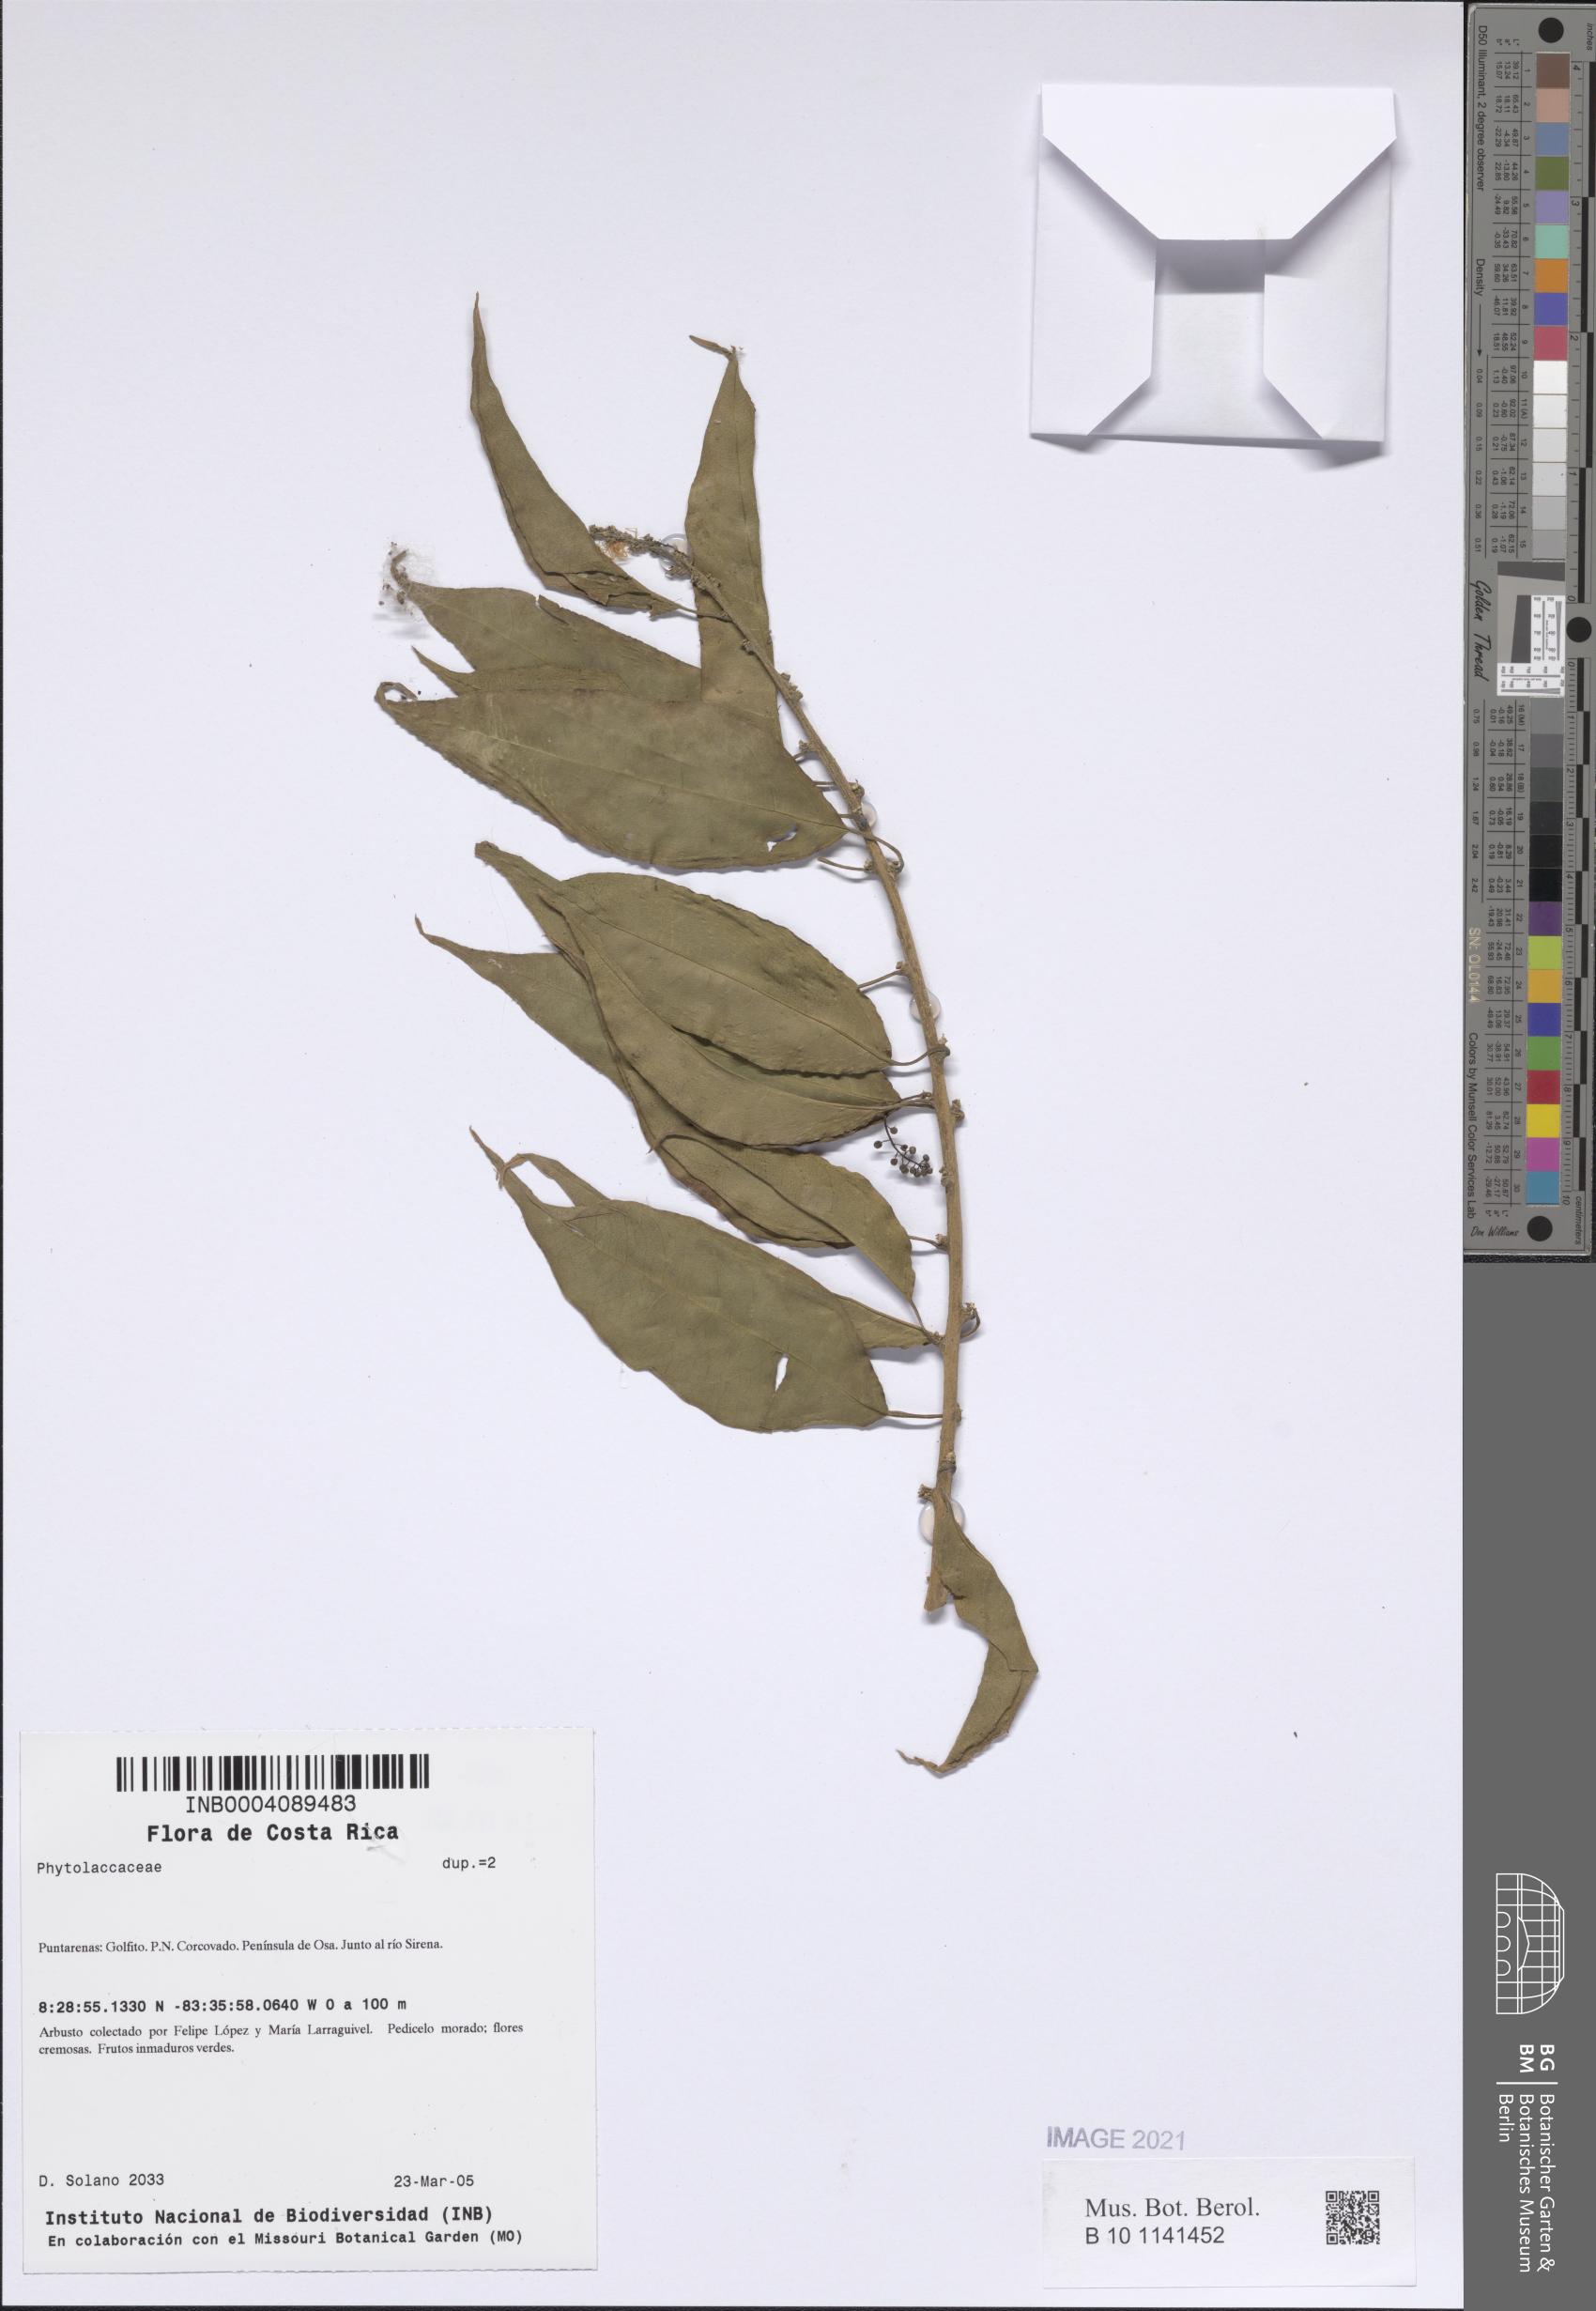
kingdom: Plantae
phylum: Tracheophyta
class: Magnoliopsida
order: Caryophyllales
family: Phytolaccaceae
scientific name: Phytolaccaceae
